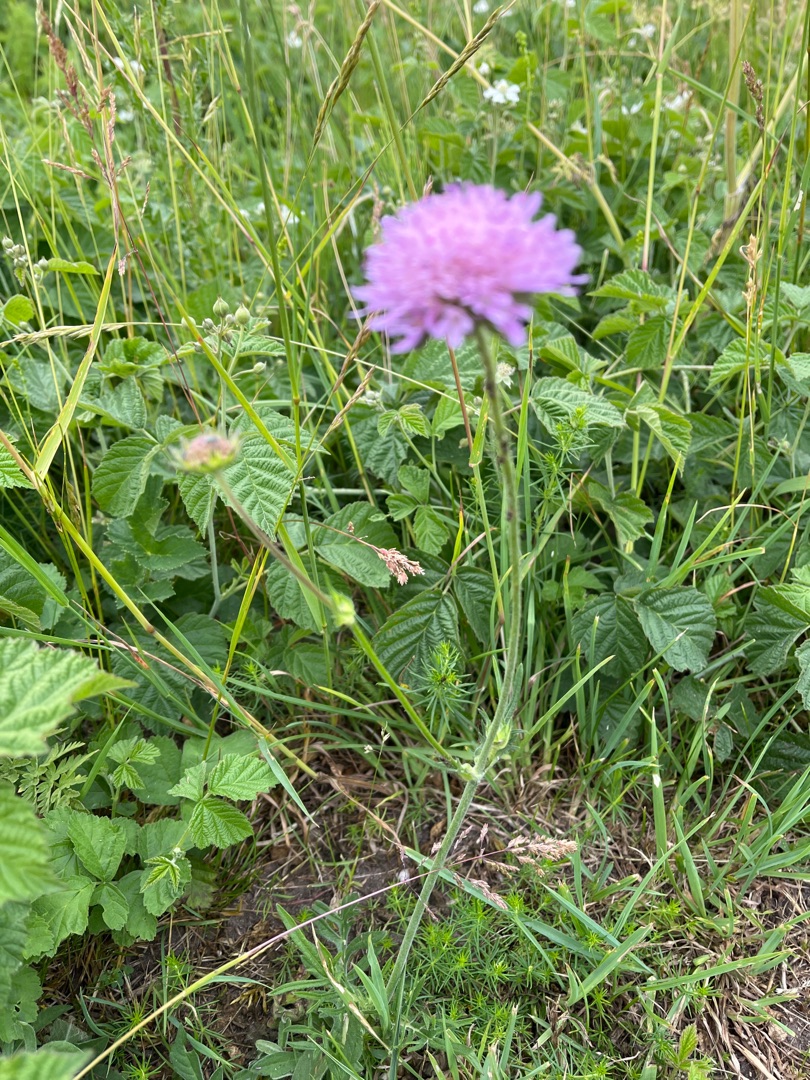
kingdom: Plantae
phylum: Tracheophyta
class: Magnoliopsida
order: Dipsacales
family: Caprifoliaceae
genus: Knautia
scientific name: Knautia arvensis
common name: Blåhat
